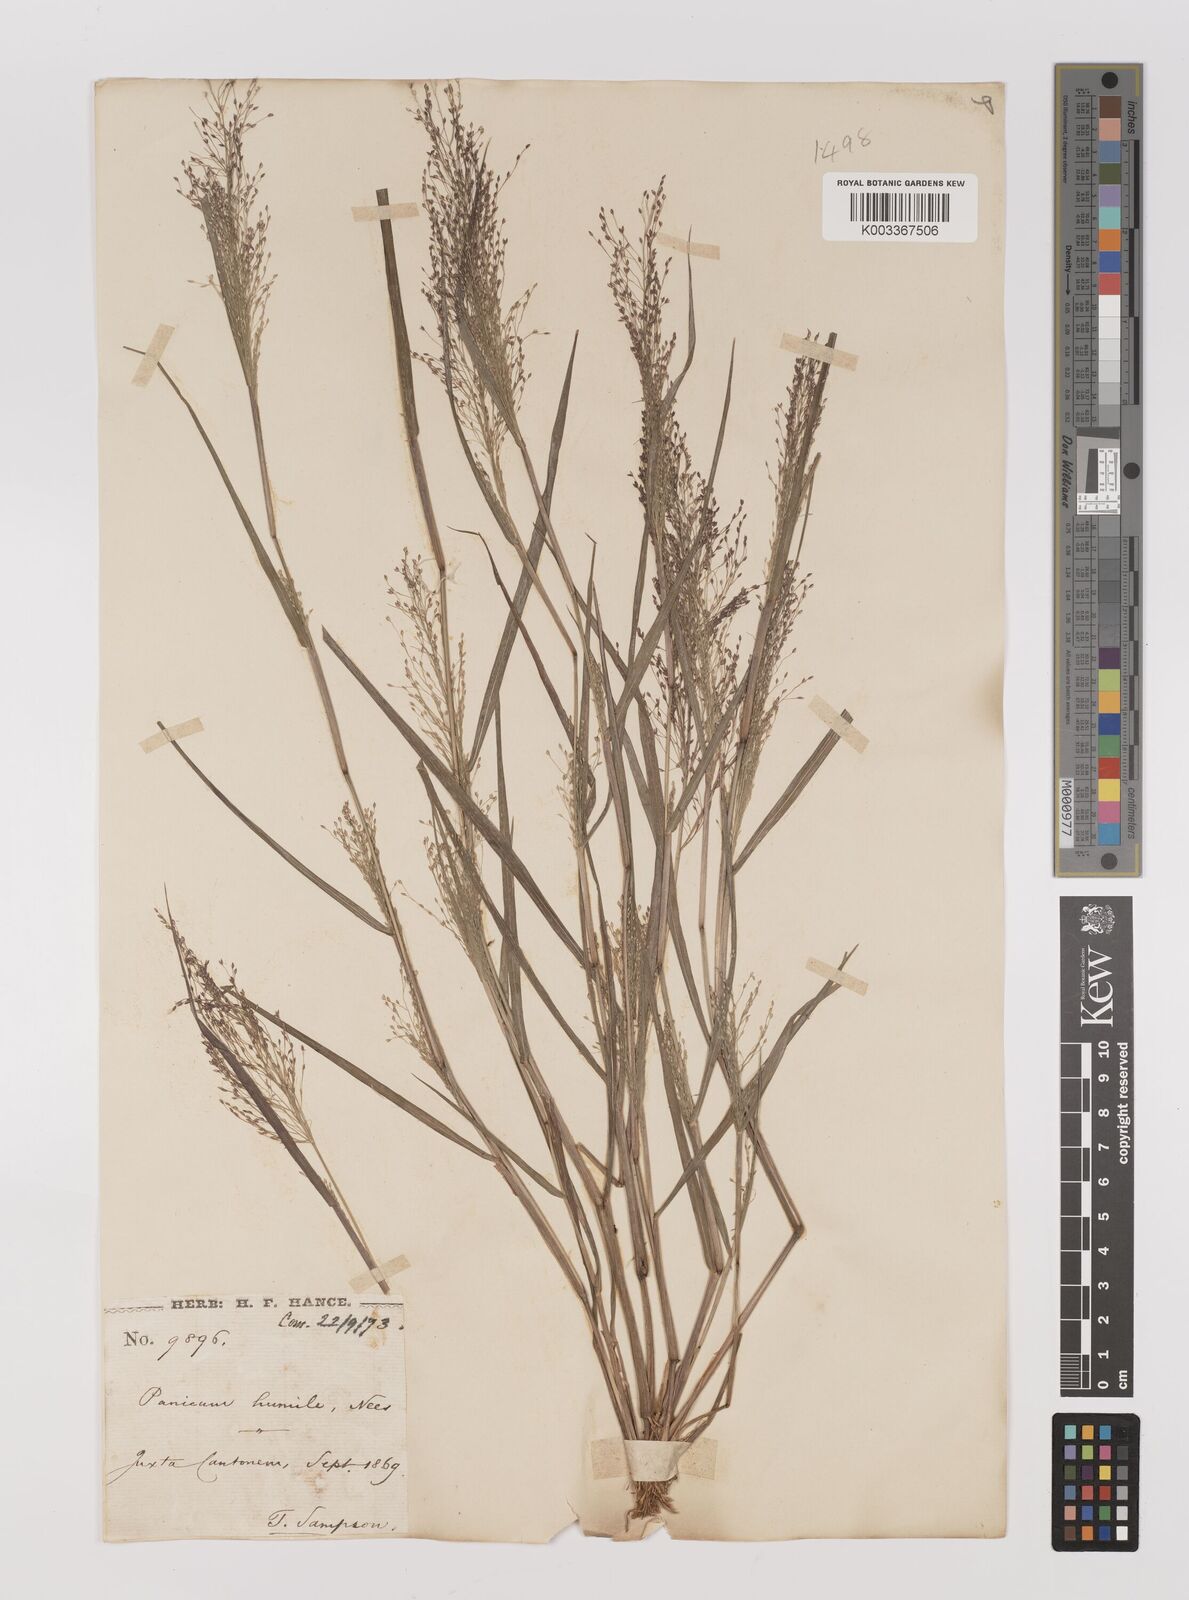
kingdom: Plantae
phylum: Tracheophyta
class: Liliopsida
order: Poales
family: Poaceae
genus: Panicum
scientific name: Panicum
